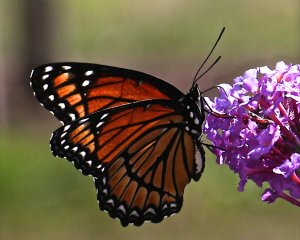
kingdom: Animalia
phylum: Arthropoda
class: Insecta
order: Lepidoptera
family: Nymphalidae
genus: Limenitis
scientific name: Limenitis archippus
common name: Viceroy
